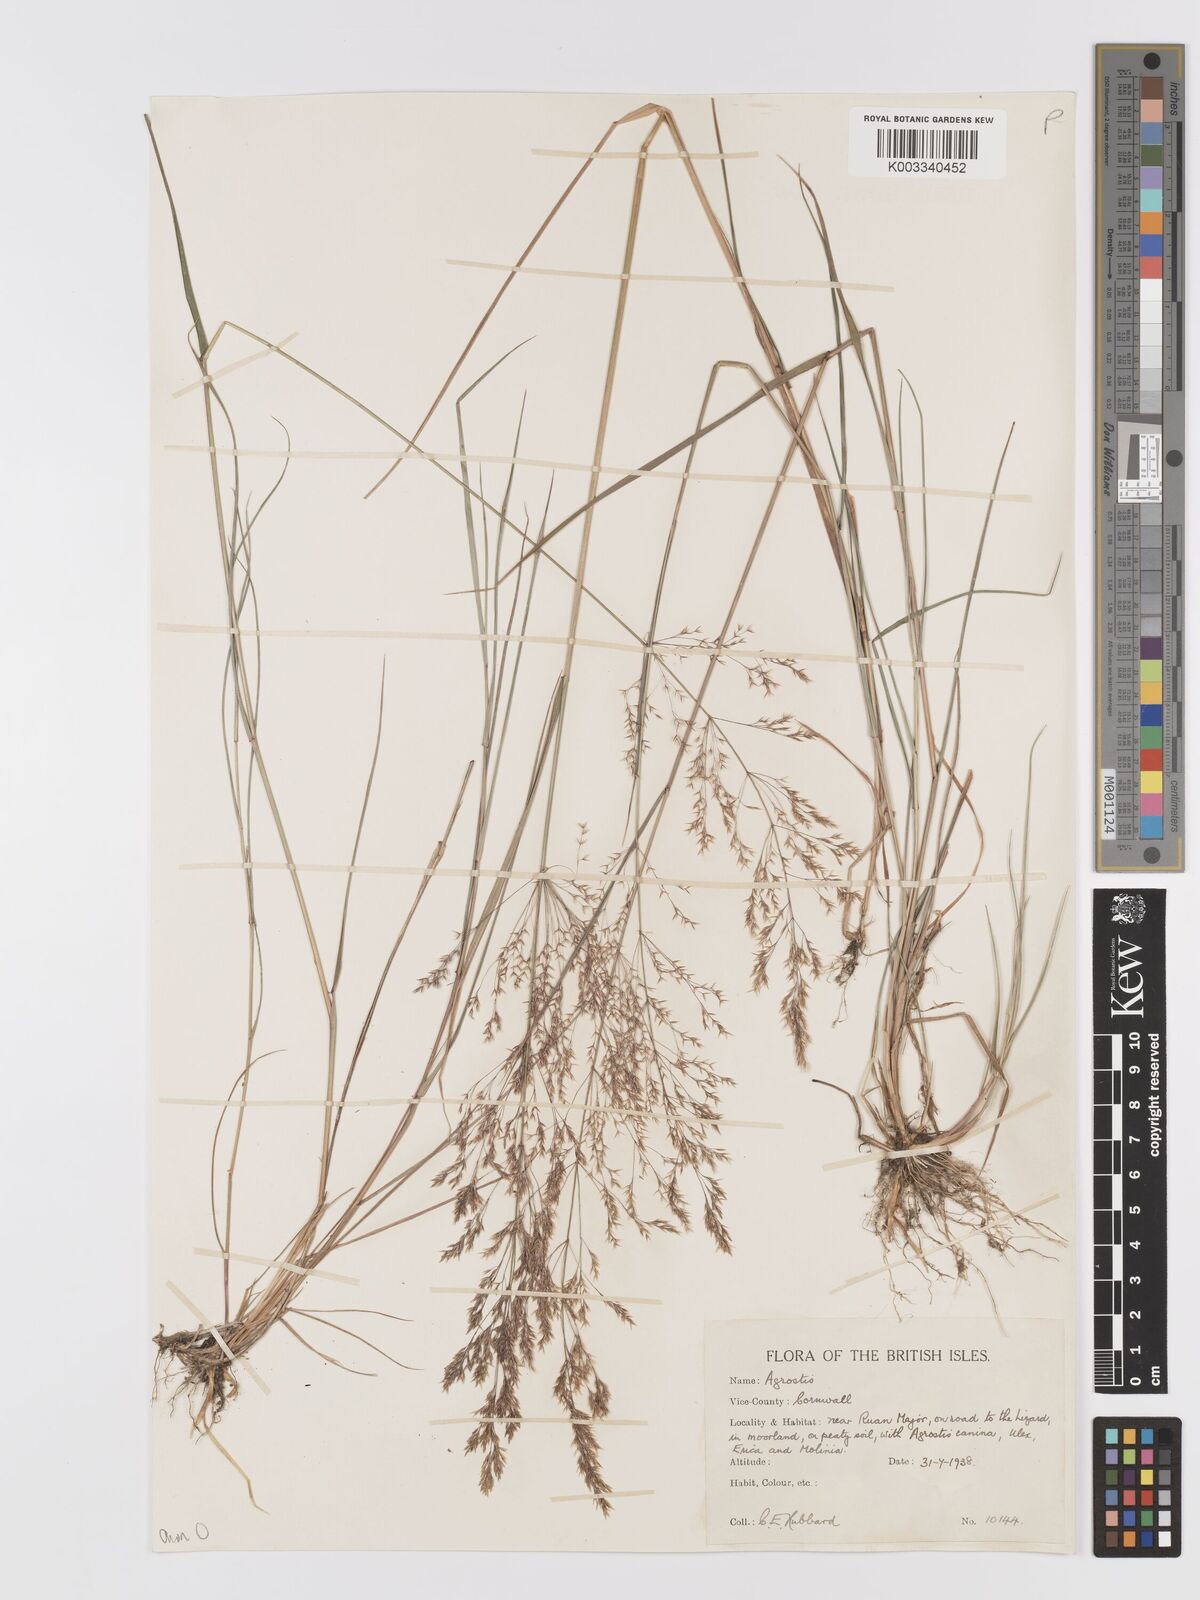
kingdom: Plantae
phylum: Tracheophyta
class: Liliopsida
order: Poales
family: Poaceae
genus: Agrostis
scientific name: Agrostis capillaris
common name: Colonial bentgrass
